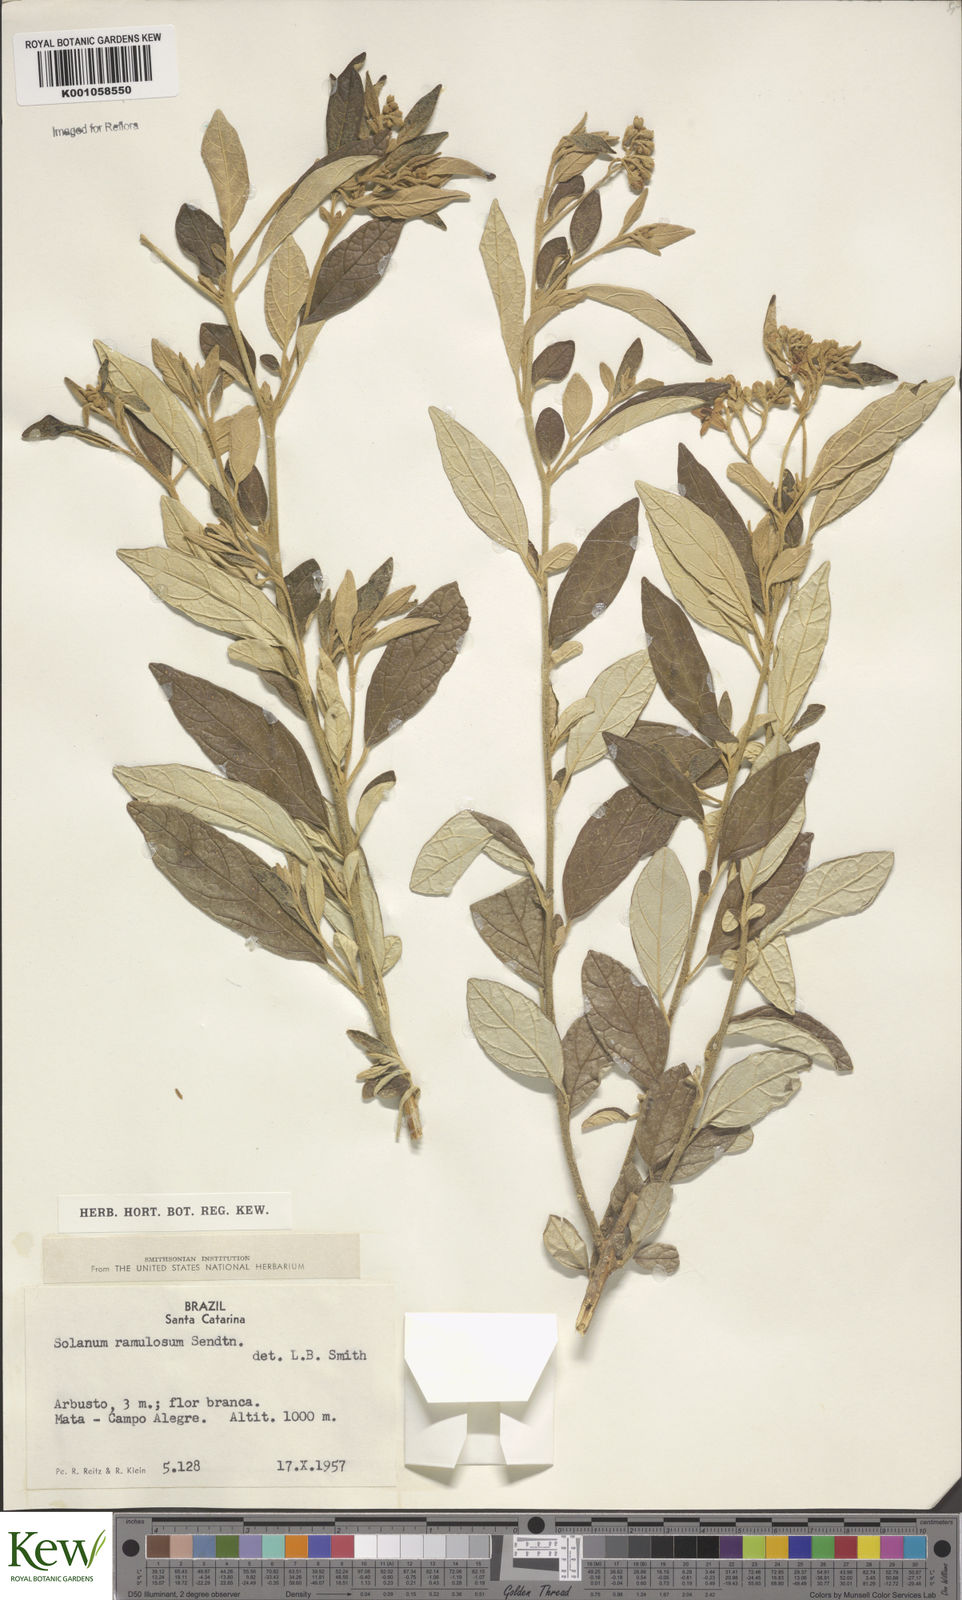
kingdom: Plantae
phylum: Tracheophyta
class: Magnoliopsida
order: Solanales
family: Solanaceae
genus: Solanum
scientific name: Solanum ramulosum
